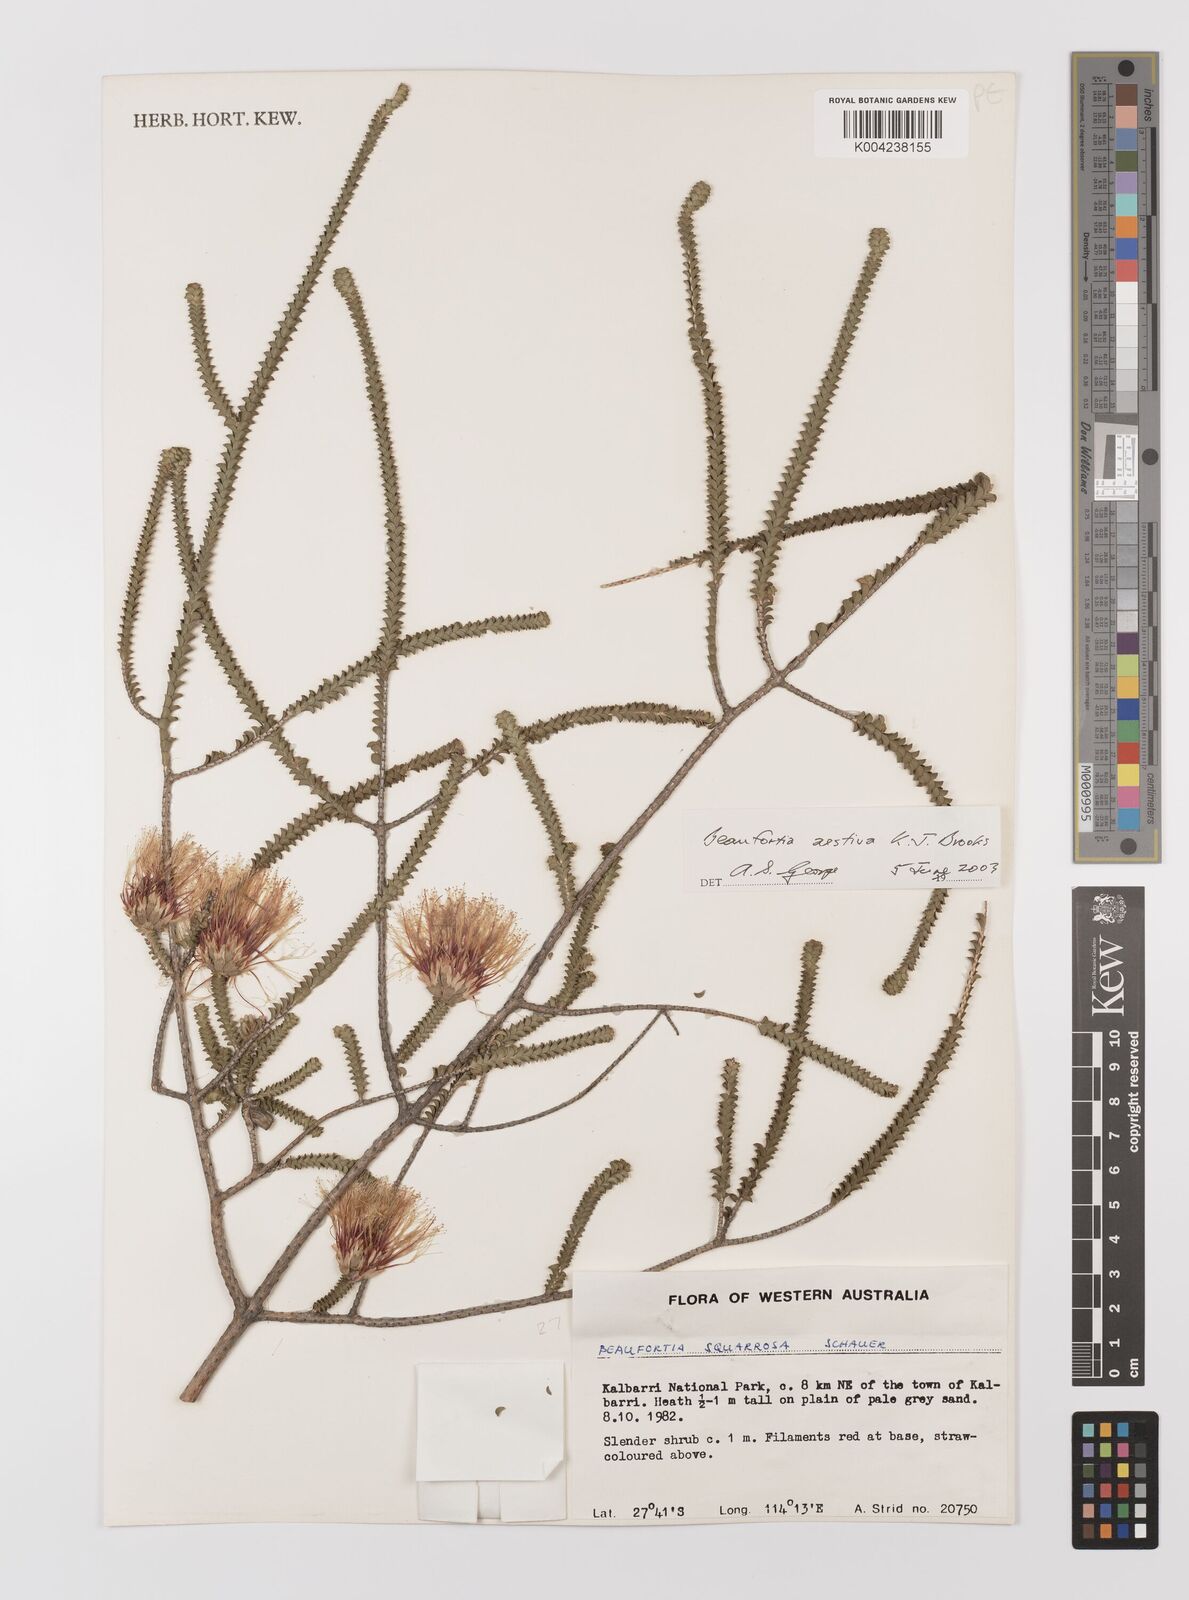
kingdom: Plantae
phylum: Tracheophyta
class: Magnoliopsida
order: Myrtales
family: Myrtaceae
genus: Melaleuca
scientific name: Melaleuca aestiva
